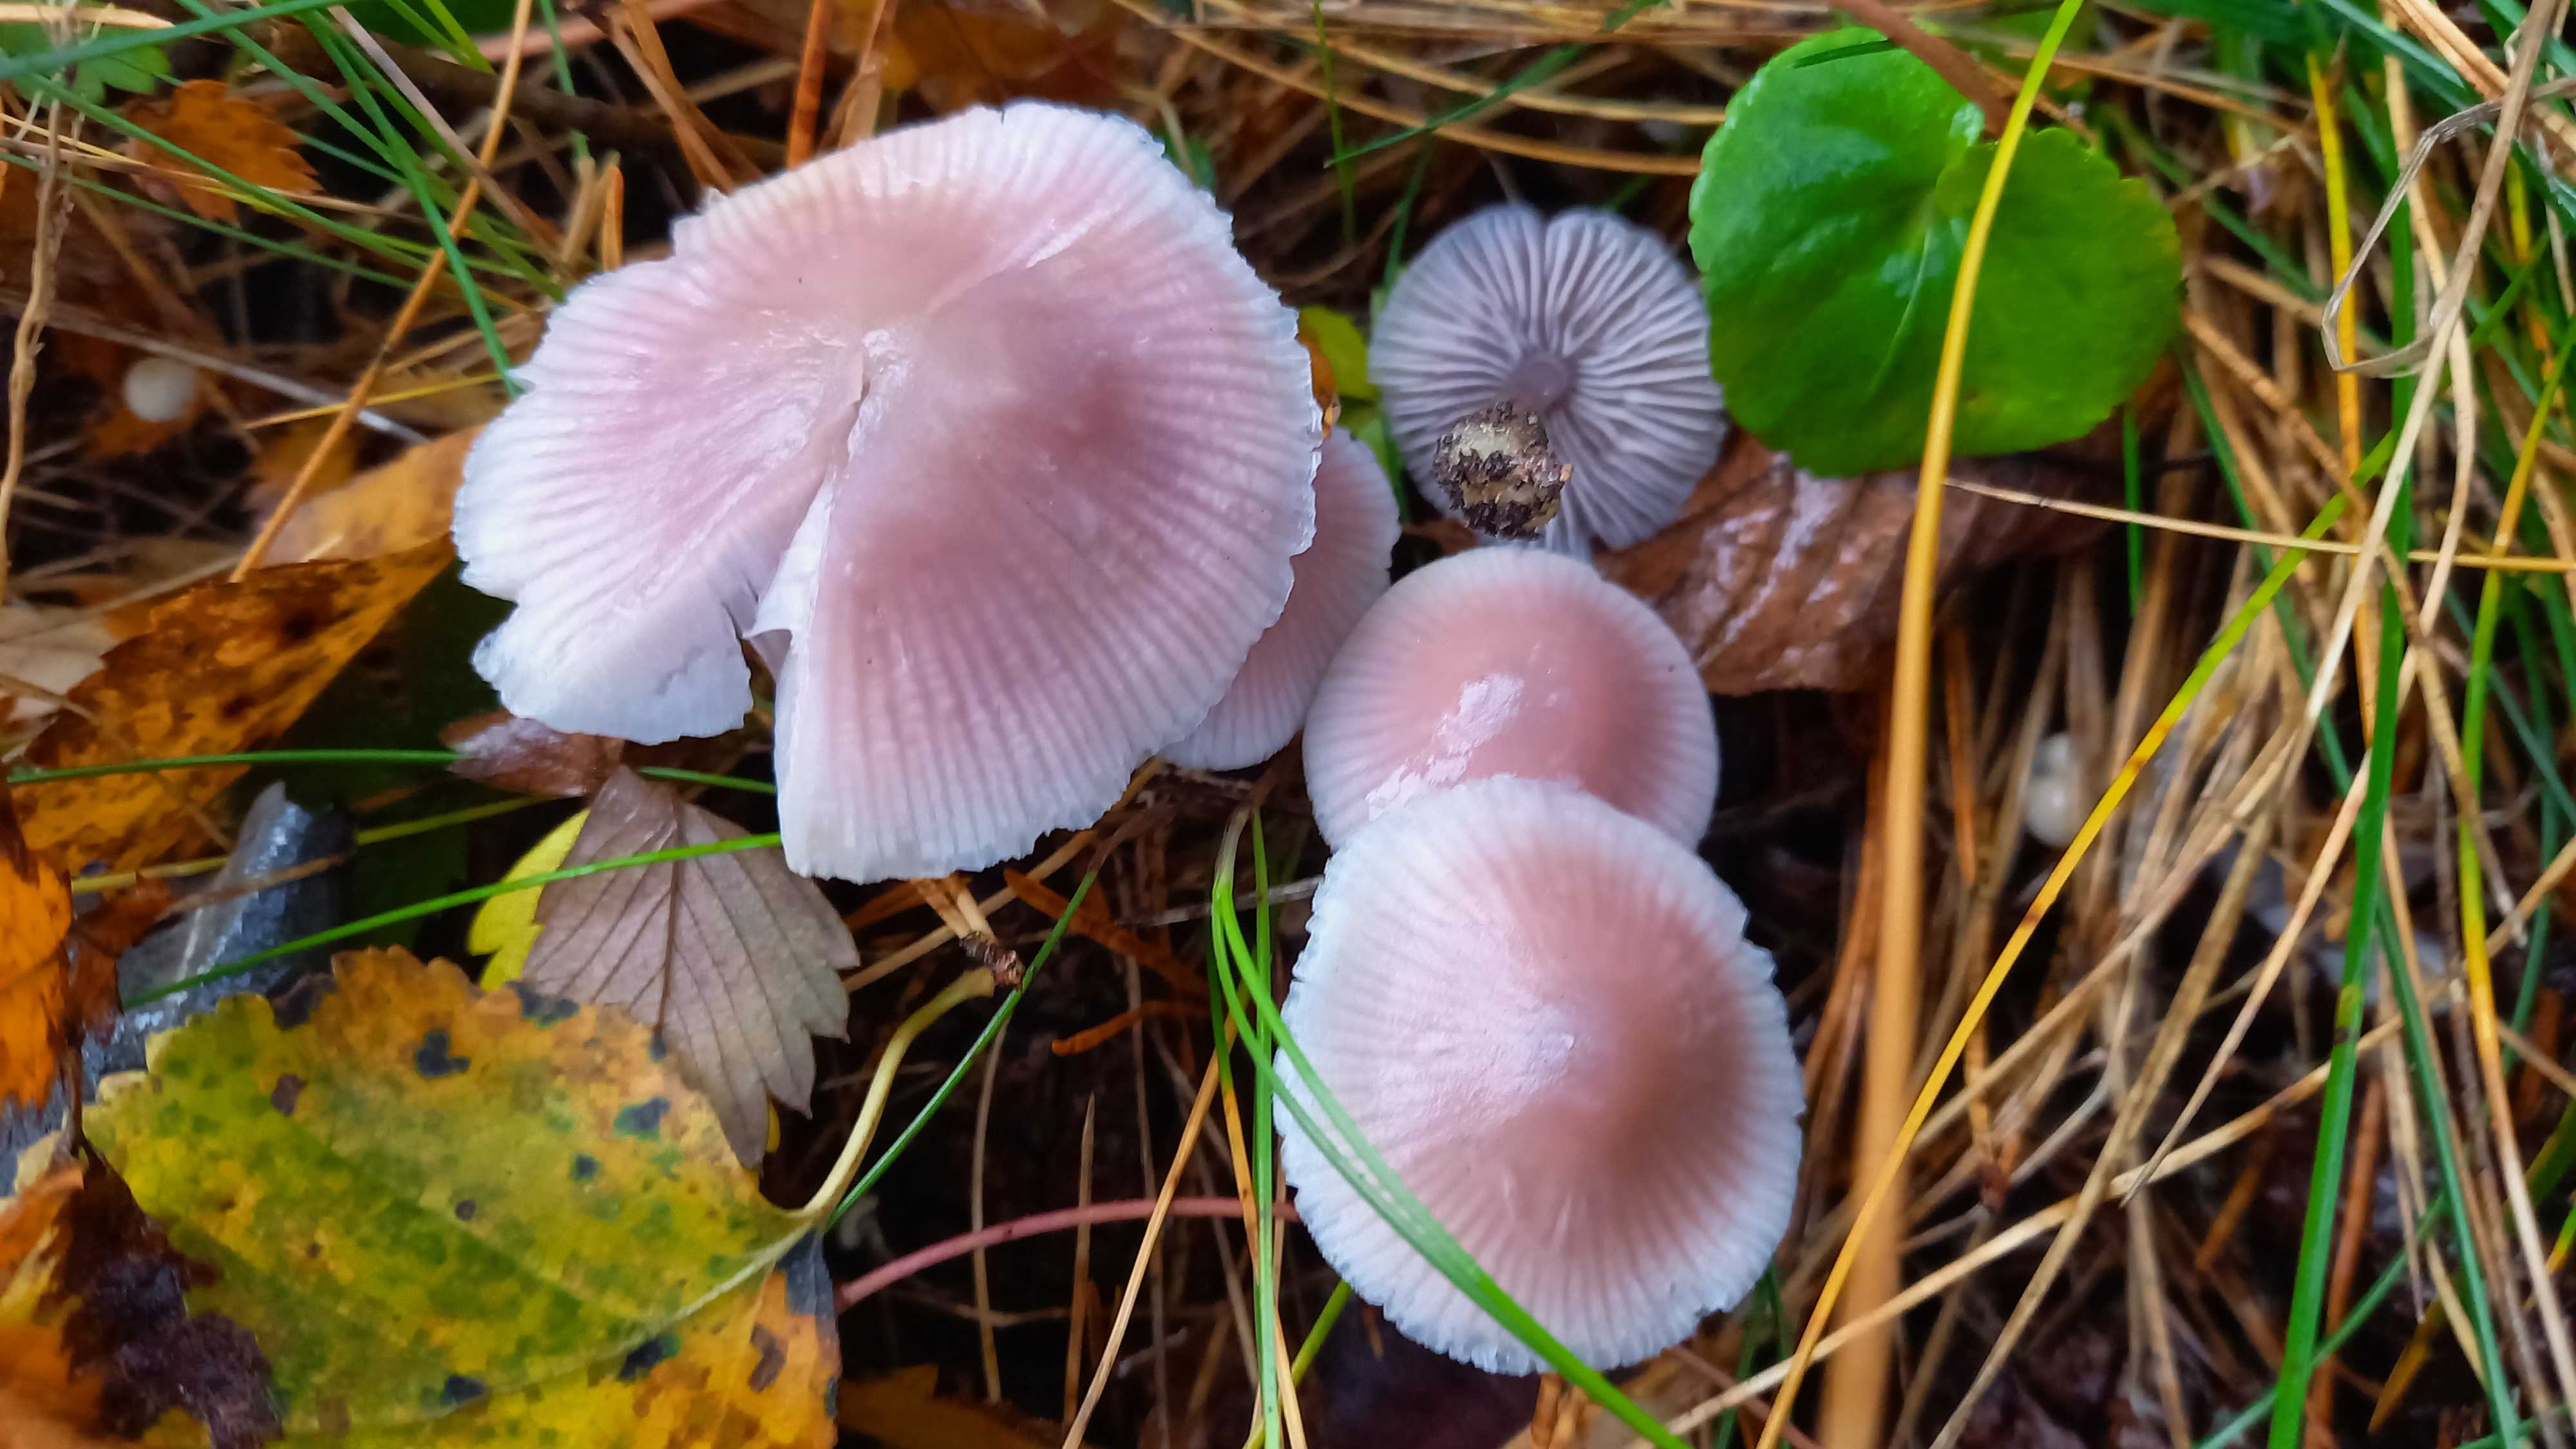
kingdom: Fungi
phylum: Basidiomycota
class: Agaricomycetes
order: Agaricales
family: Mycenaceae
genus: Mycena
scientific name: Mycena rosea
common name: rosa huesvamp
